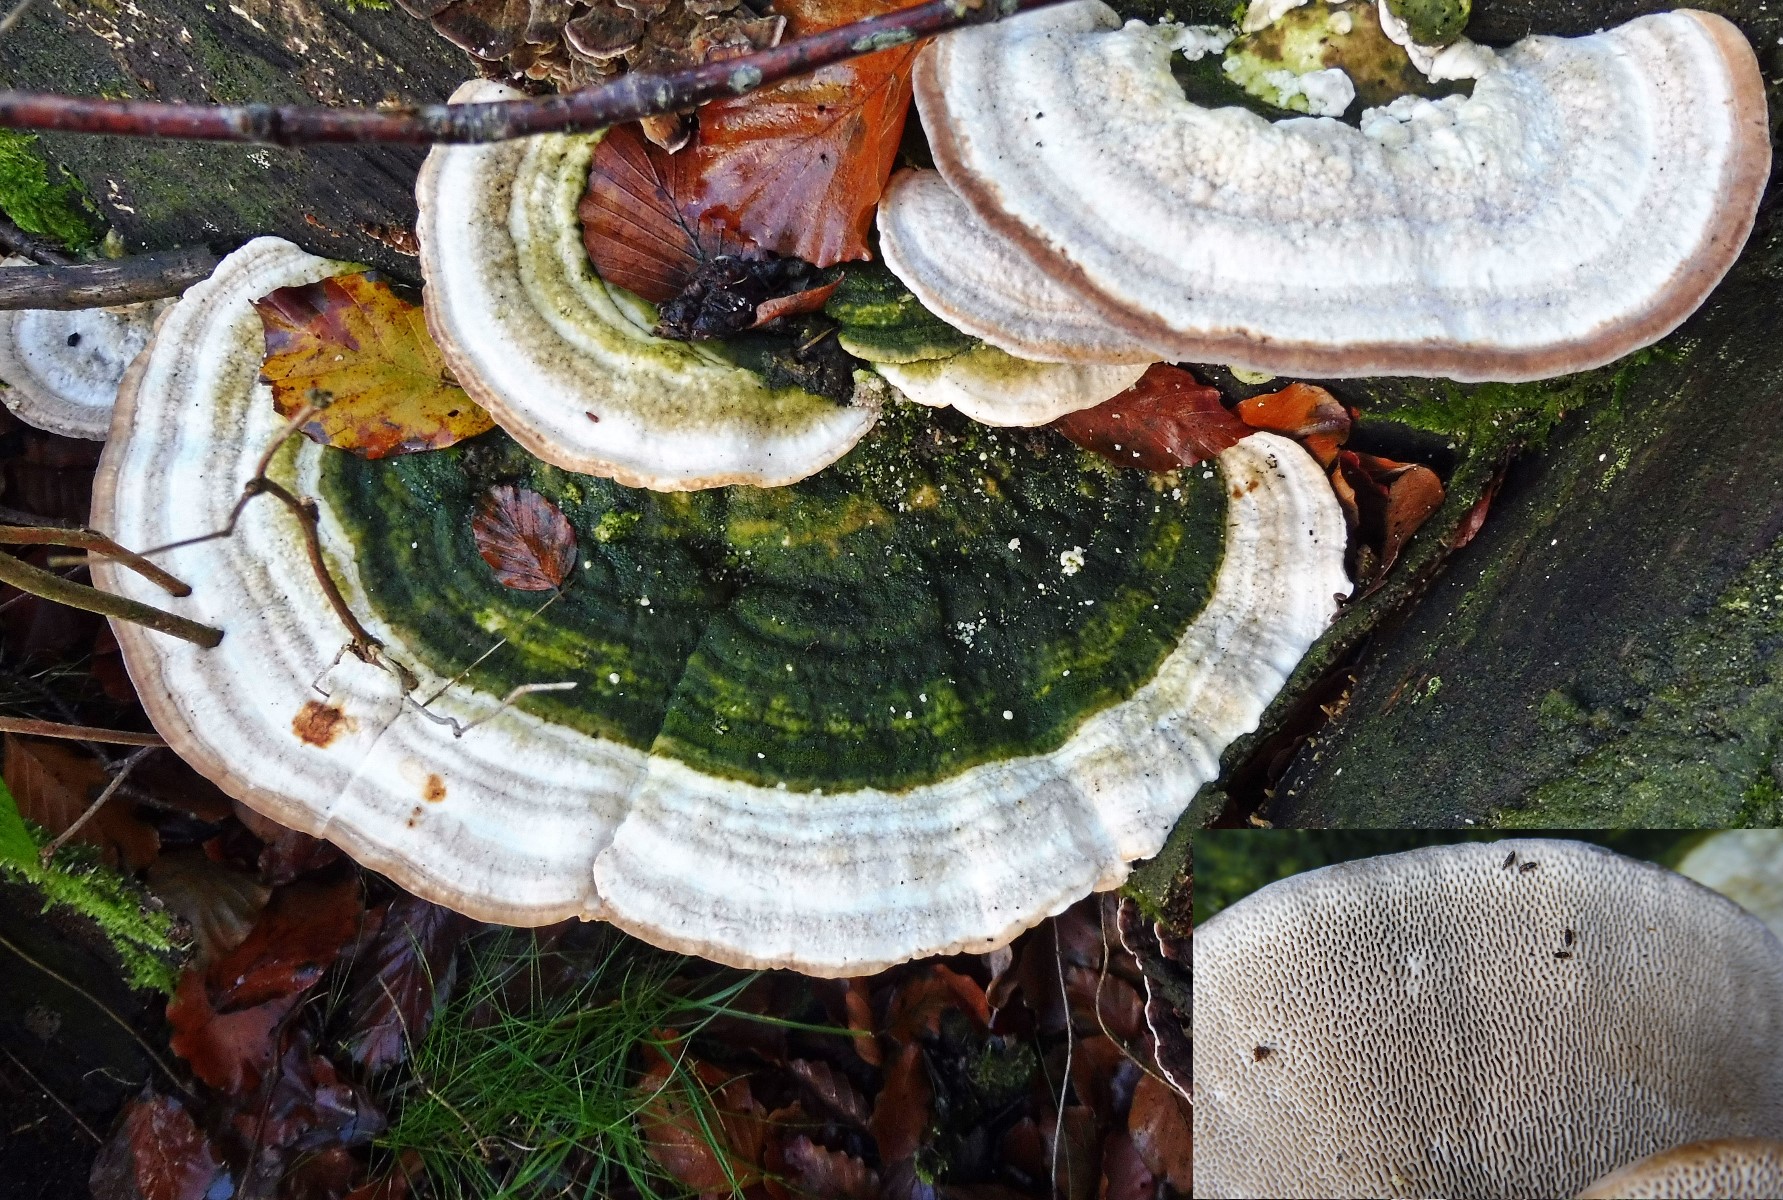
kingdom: Fungi
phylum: Basidiomycota
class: Agaricomycetes
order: Polyporales
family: Polyporaceae
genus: Trametes
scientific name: Trametes gibbosa
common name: puklet læderporesvamp
